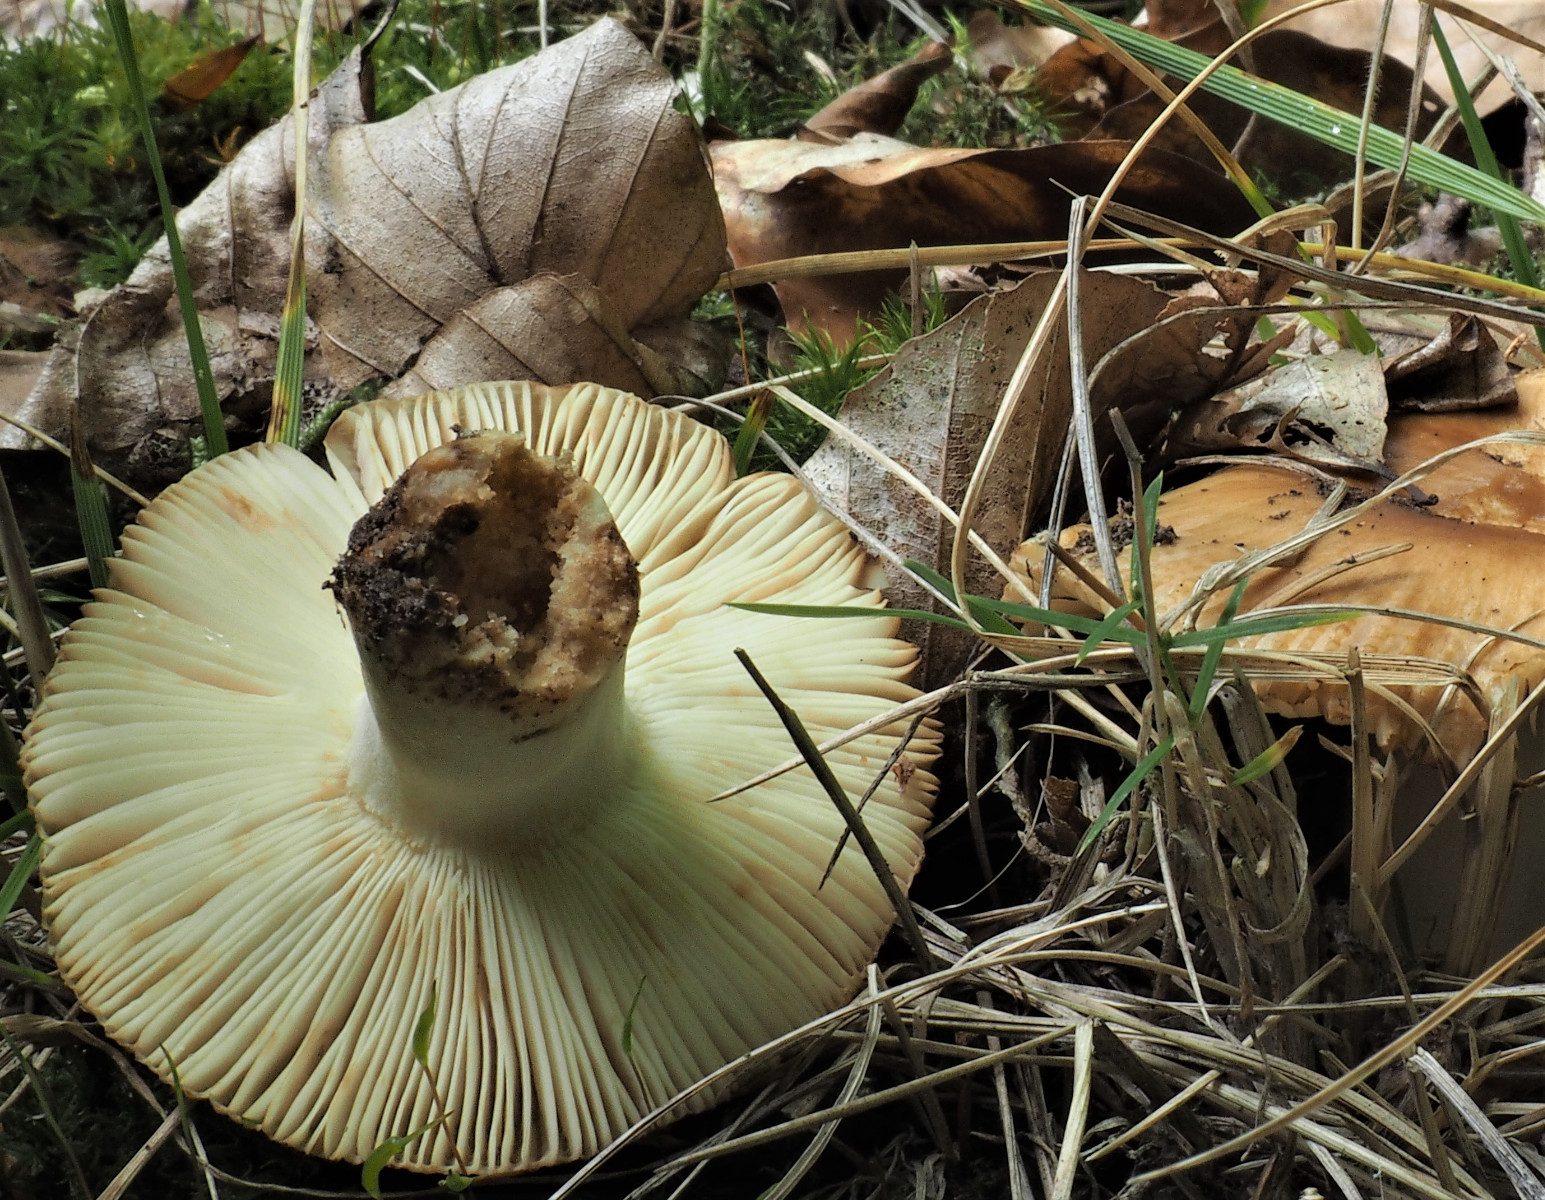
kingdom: Fungi
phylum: Basidiomycota
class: Agaricomycetes
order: Russulales
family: Russulaceae
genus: Russula
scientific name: Russula foetens
